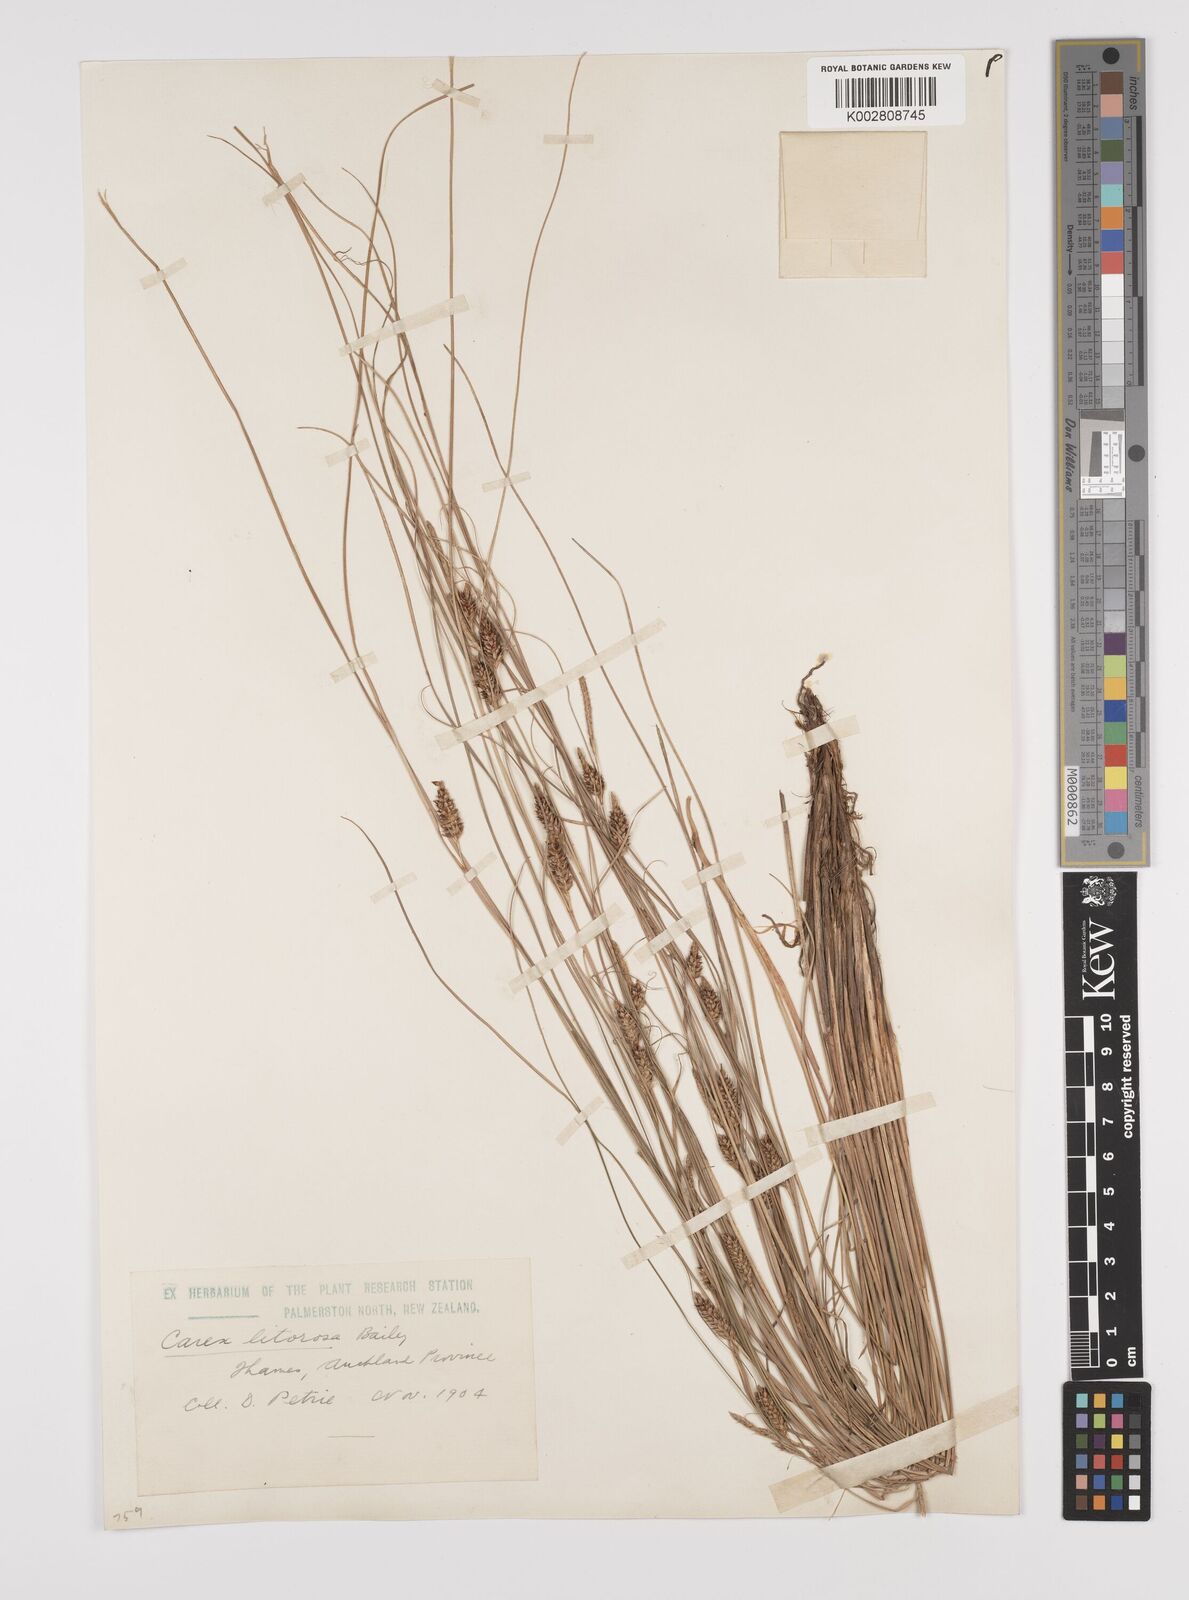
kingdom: Plantae
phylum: Tracheophyta
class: Liliopsida
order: Poales
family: Cyperaceae
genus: Carex
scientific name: Carex litorosa
